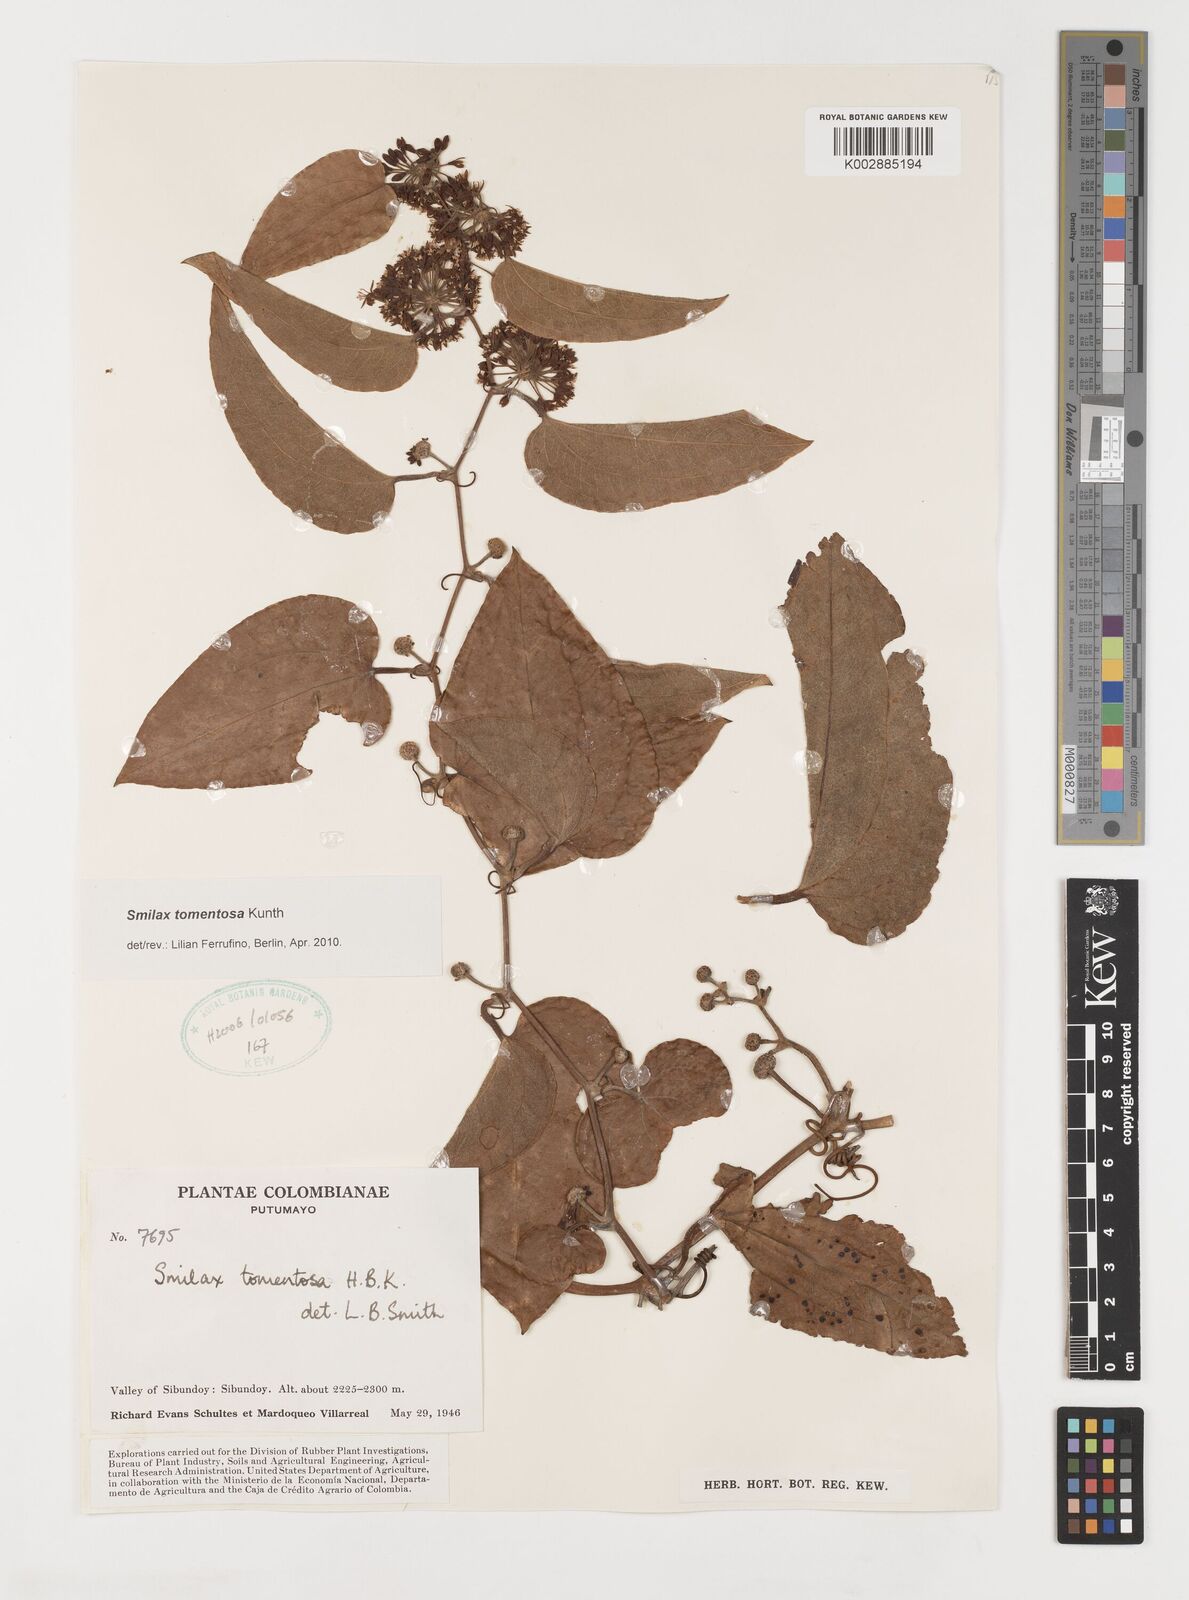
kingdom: Plantae
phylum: Tracheophyta
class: Liliopsida
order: Liliales
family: Smilacaceae
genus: Smilax
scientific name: Smilax tomentosa
